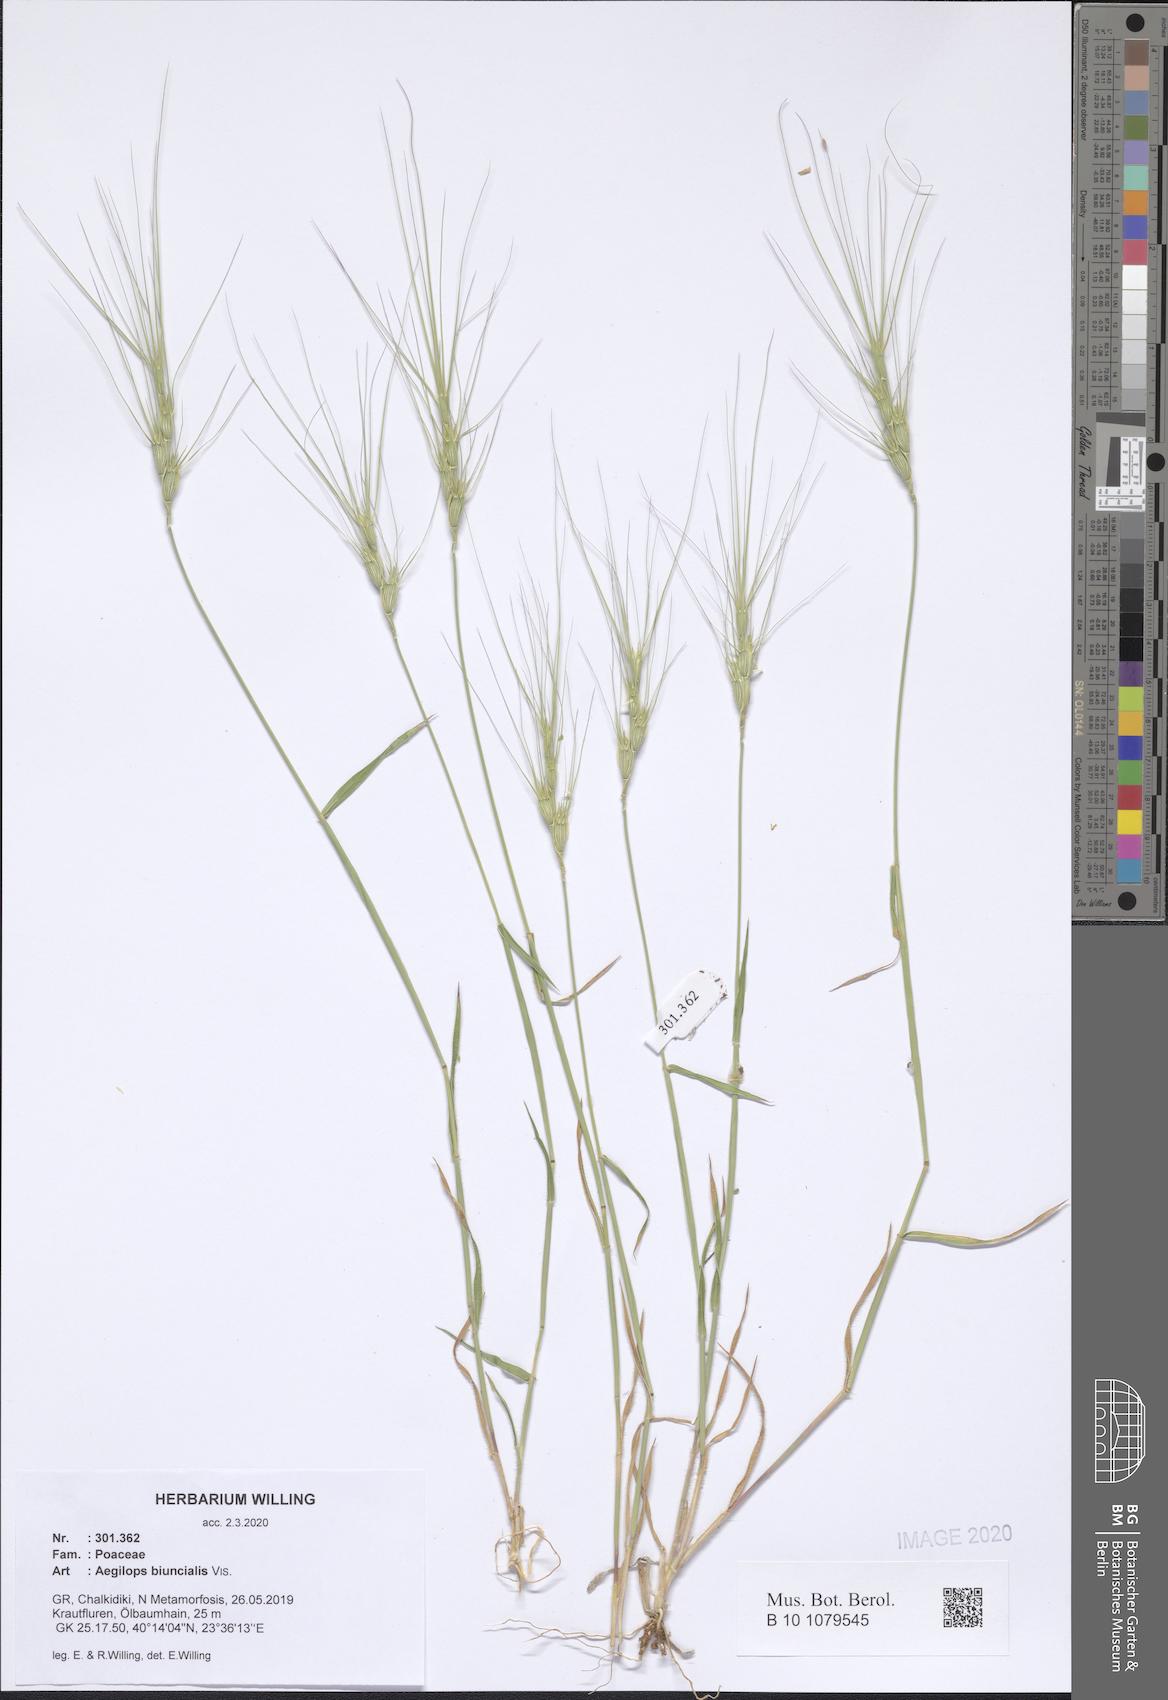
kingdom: Plantae
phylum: Tracheophyta
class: Liliopsida
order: Poales
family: Poaceae
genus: Aegilops
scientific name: Aegilops biuncialis
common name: Mediterranean aegilops
